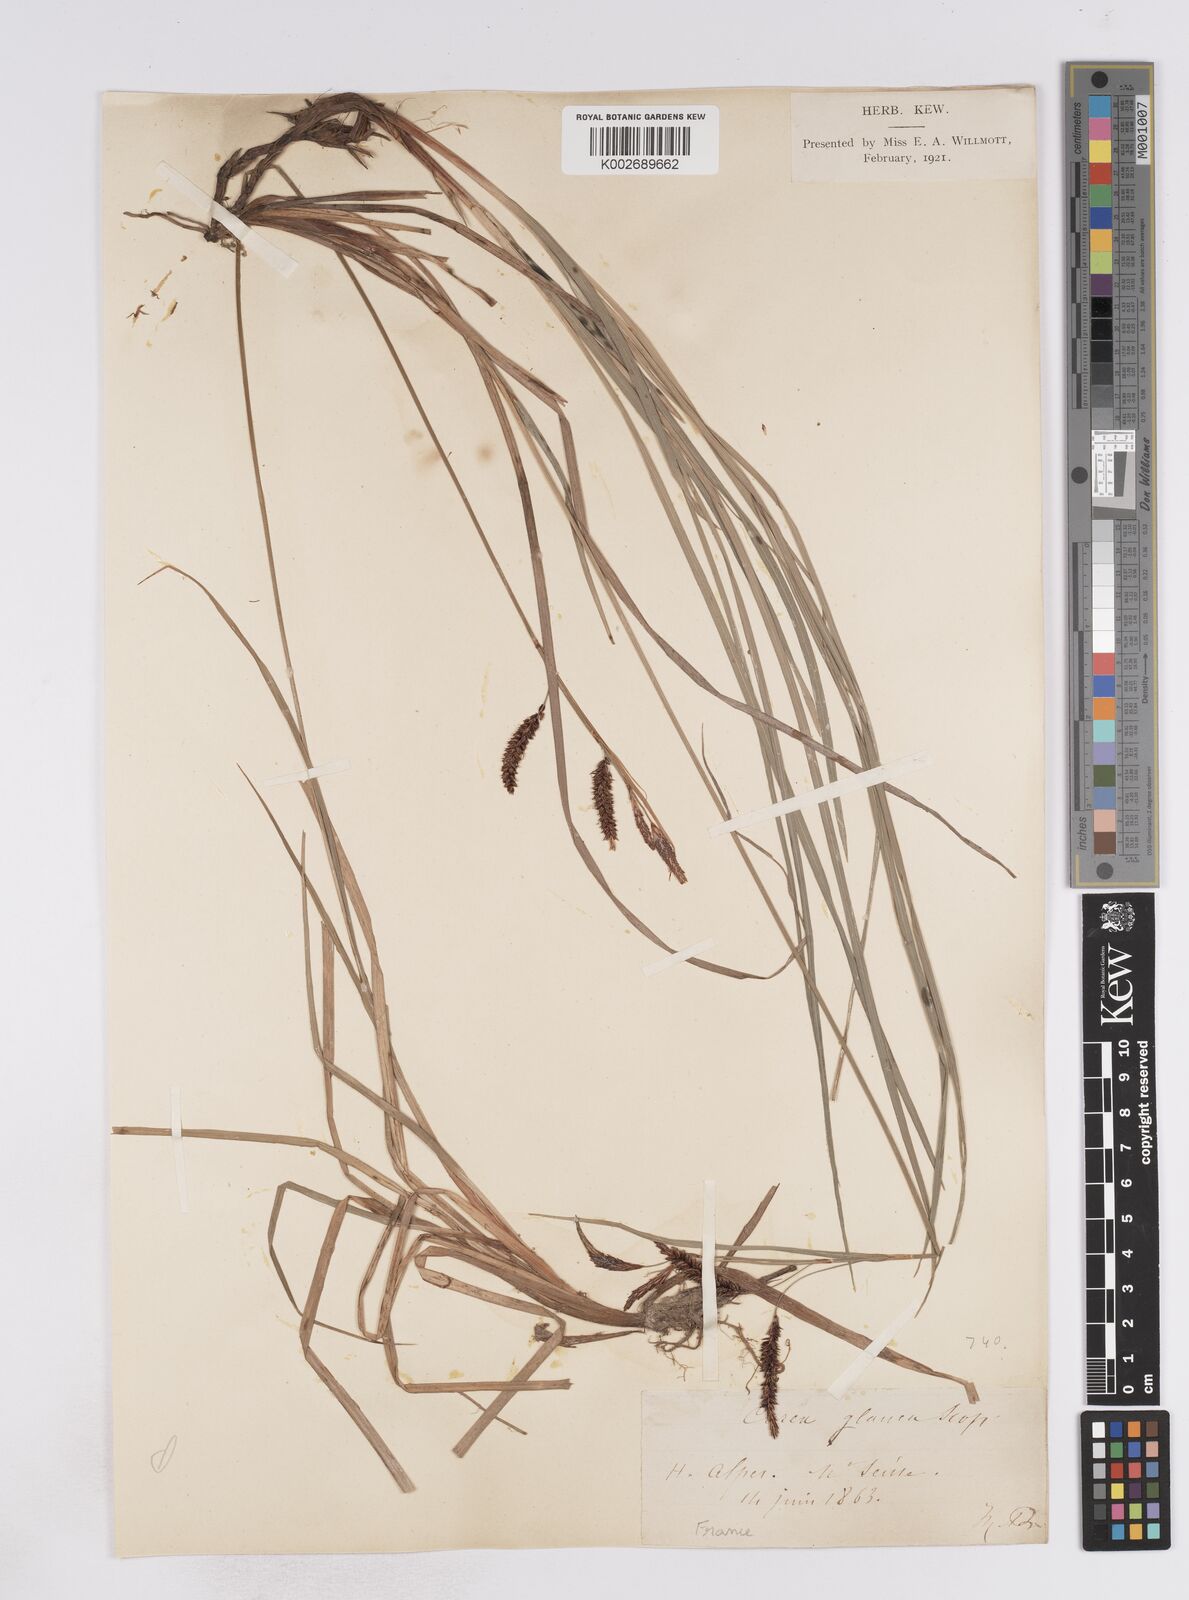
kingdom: Plantae
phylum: Tracheophyta
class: Liliopsida
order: Poales
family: Cyperaceae
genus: Carex
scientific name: Carex flacca
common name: Glaucous sedge
